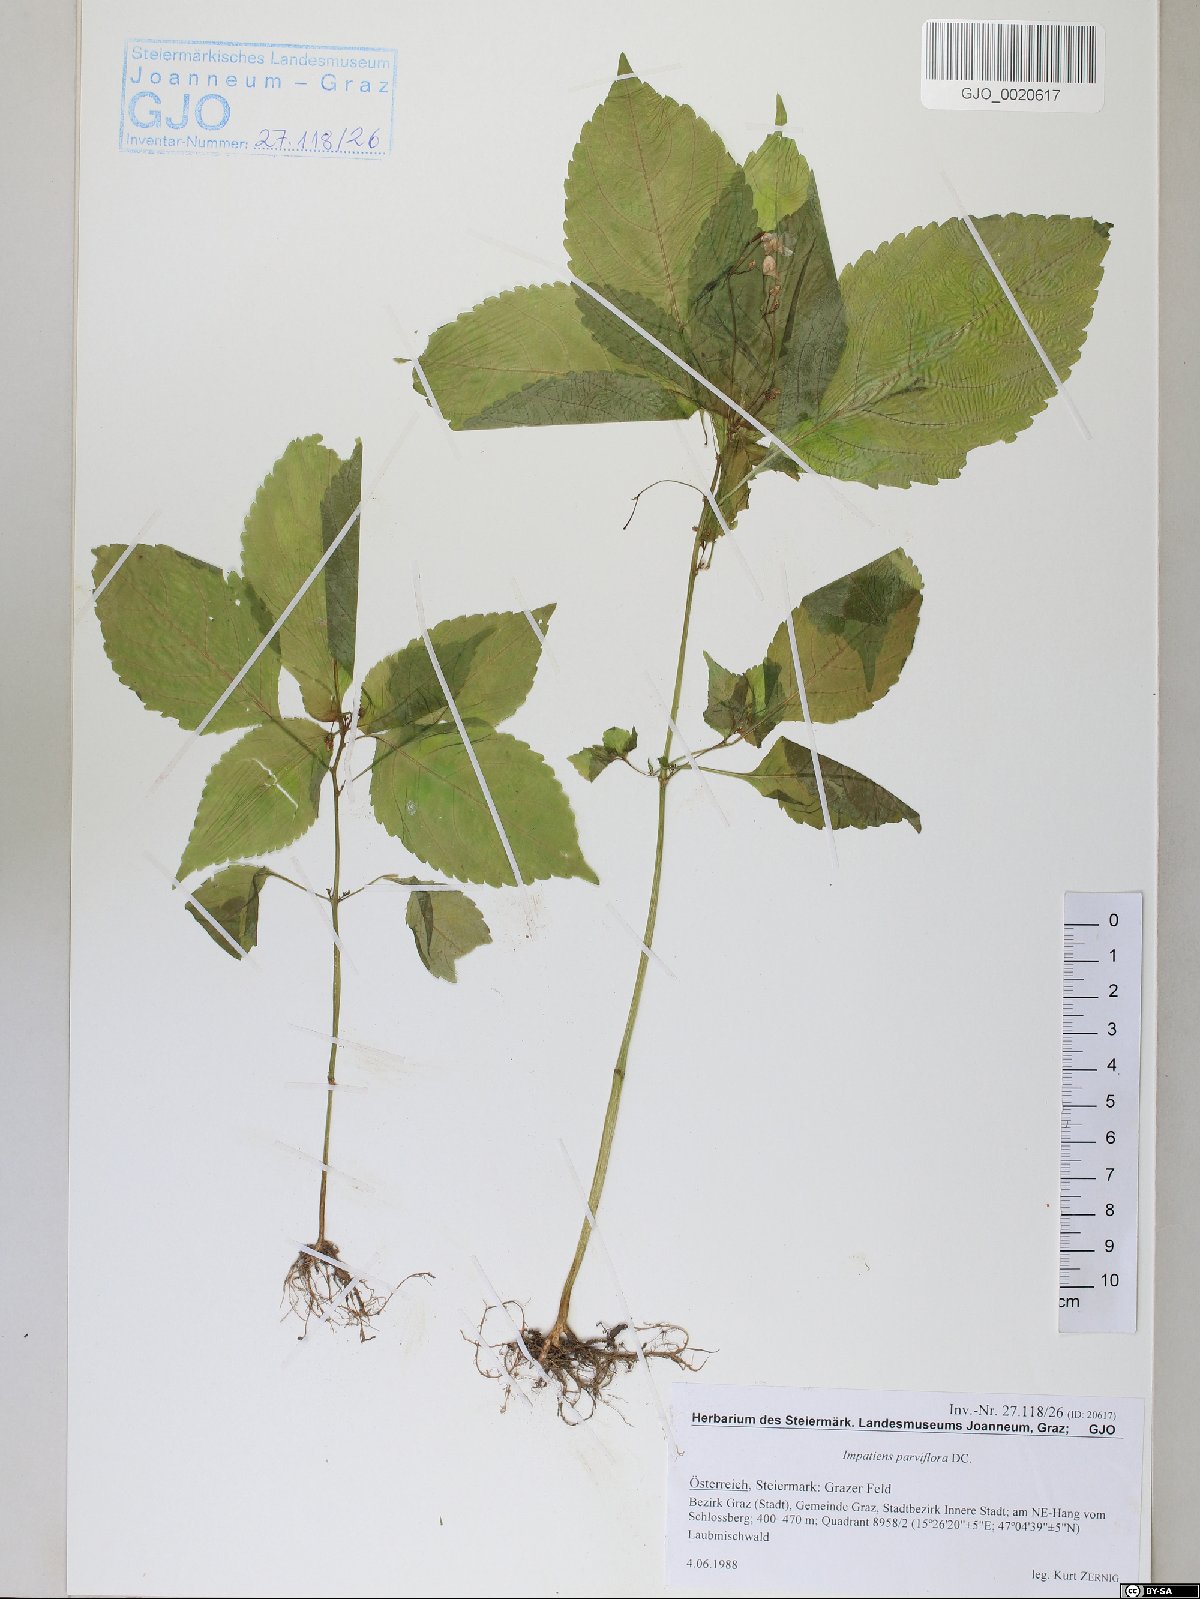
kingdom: Plantae
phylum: Tracheophyta
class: Magnoliopsida
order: Ericales
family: Balsaminaceae
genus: Impatiens
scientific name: Impatiens parviflora
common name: Small balsam
